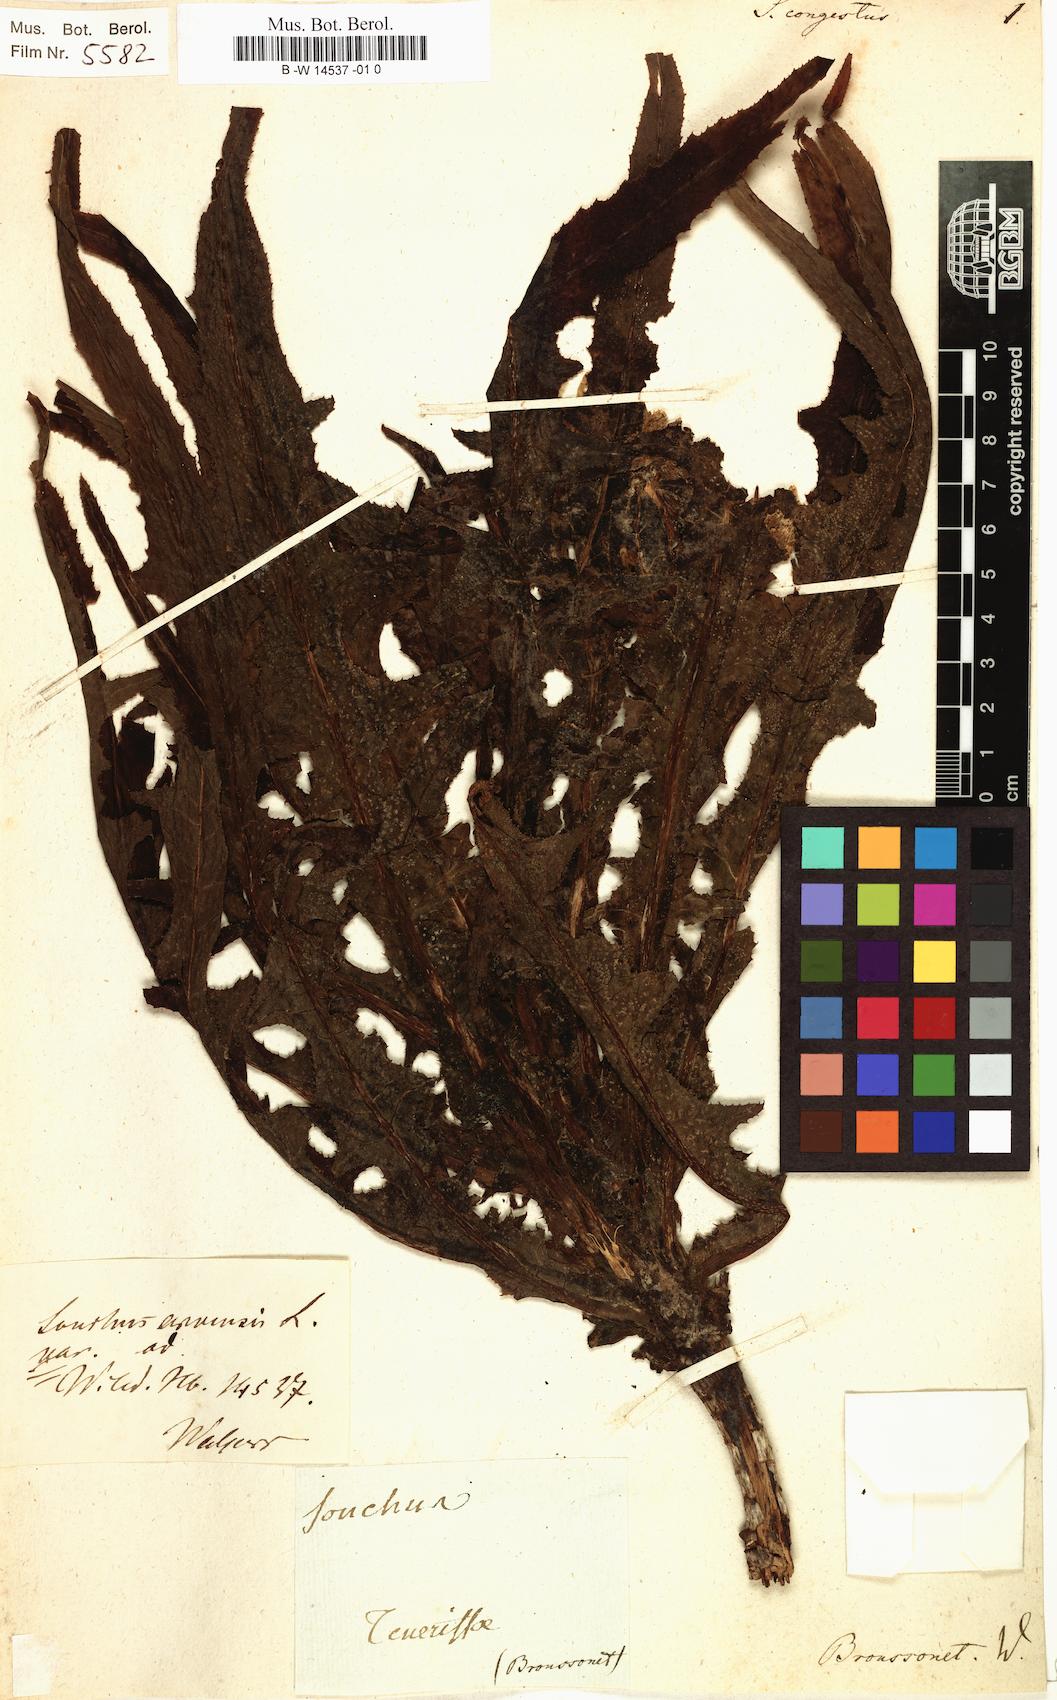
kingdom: Plantae
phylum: Tracheophyta
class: Magnoliopsida
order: Asterales
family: Asteraceae
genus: Sonchus
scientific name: Sonchus congestus
